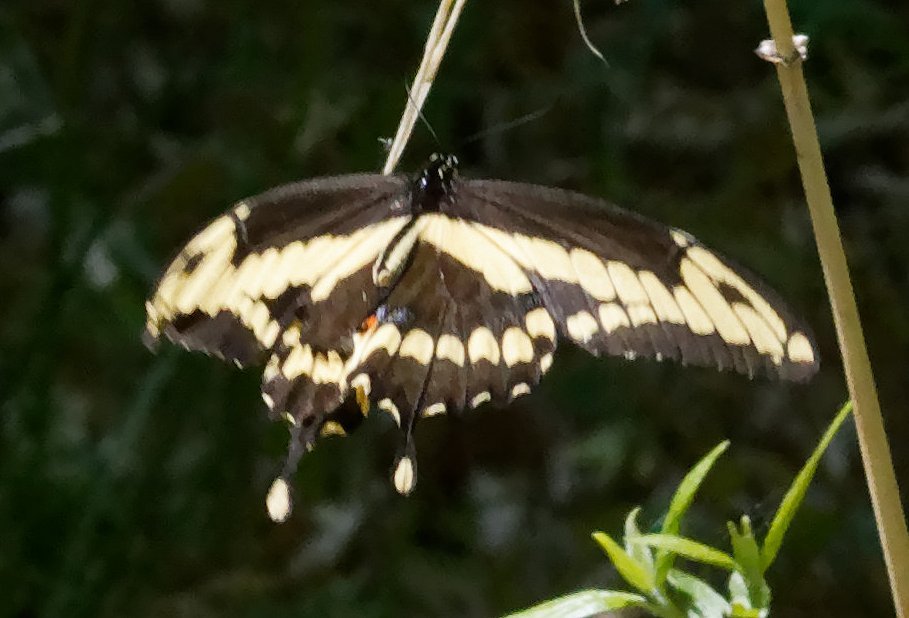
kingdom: Animalia
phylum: Arthropoda
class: Insecta
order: Lepidoptera
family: Papilionidae
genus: Papilio
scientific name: Papilio cresphontes
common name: Eastern Giant Swallowtail
